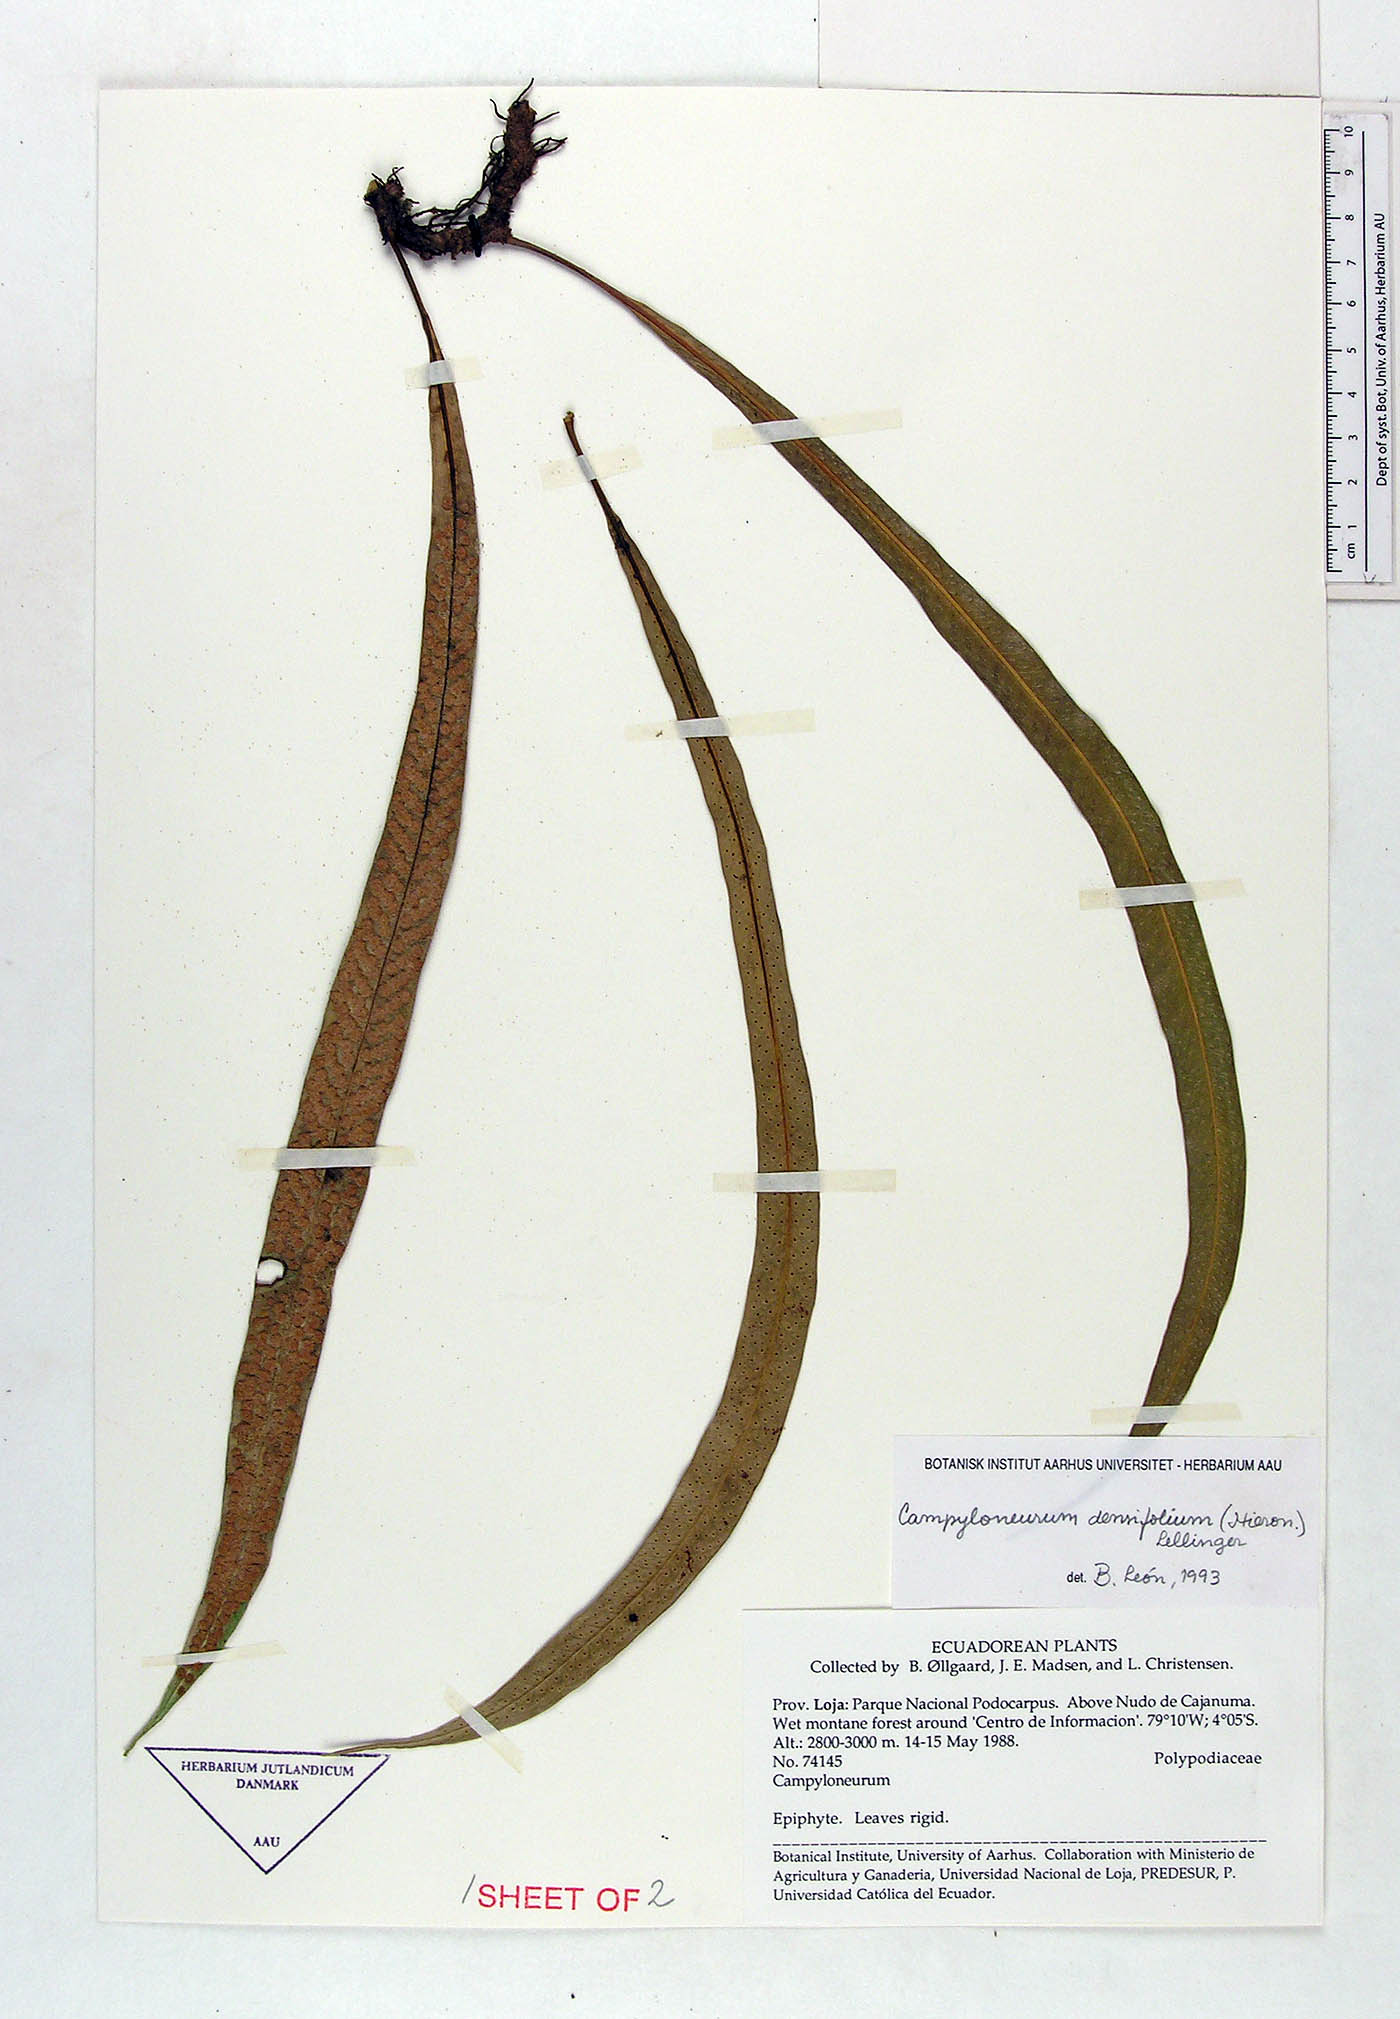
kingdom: Plantae
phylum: Tracheophyta
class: Polypodiopsida
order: Polypodiales
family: Polypodiaceae
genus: Campyloneurum
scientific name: Campyloneurum densifolium
